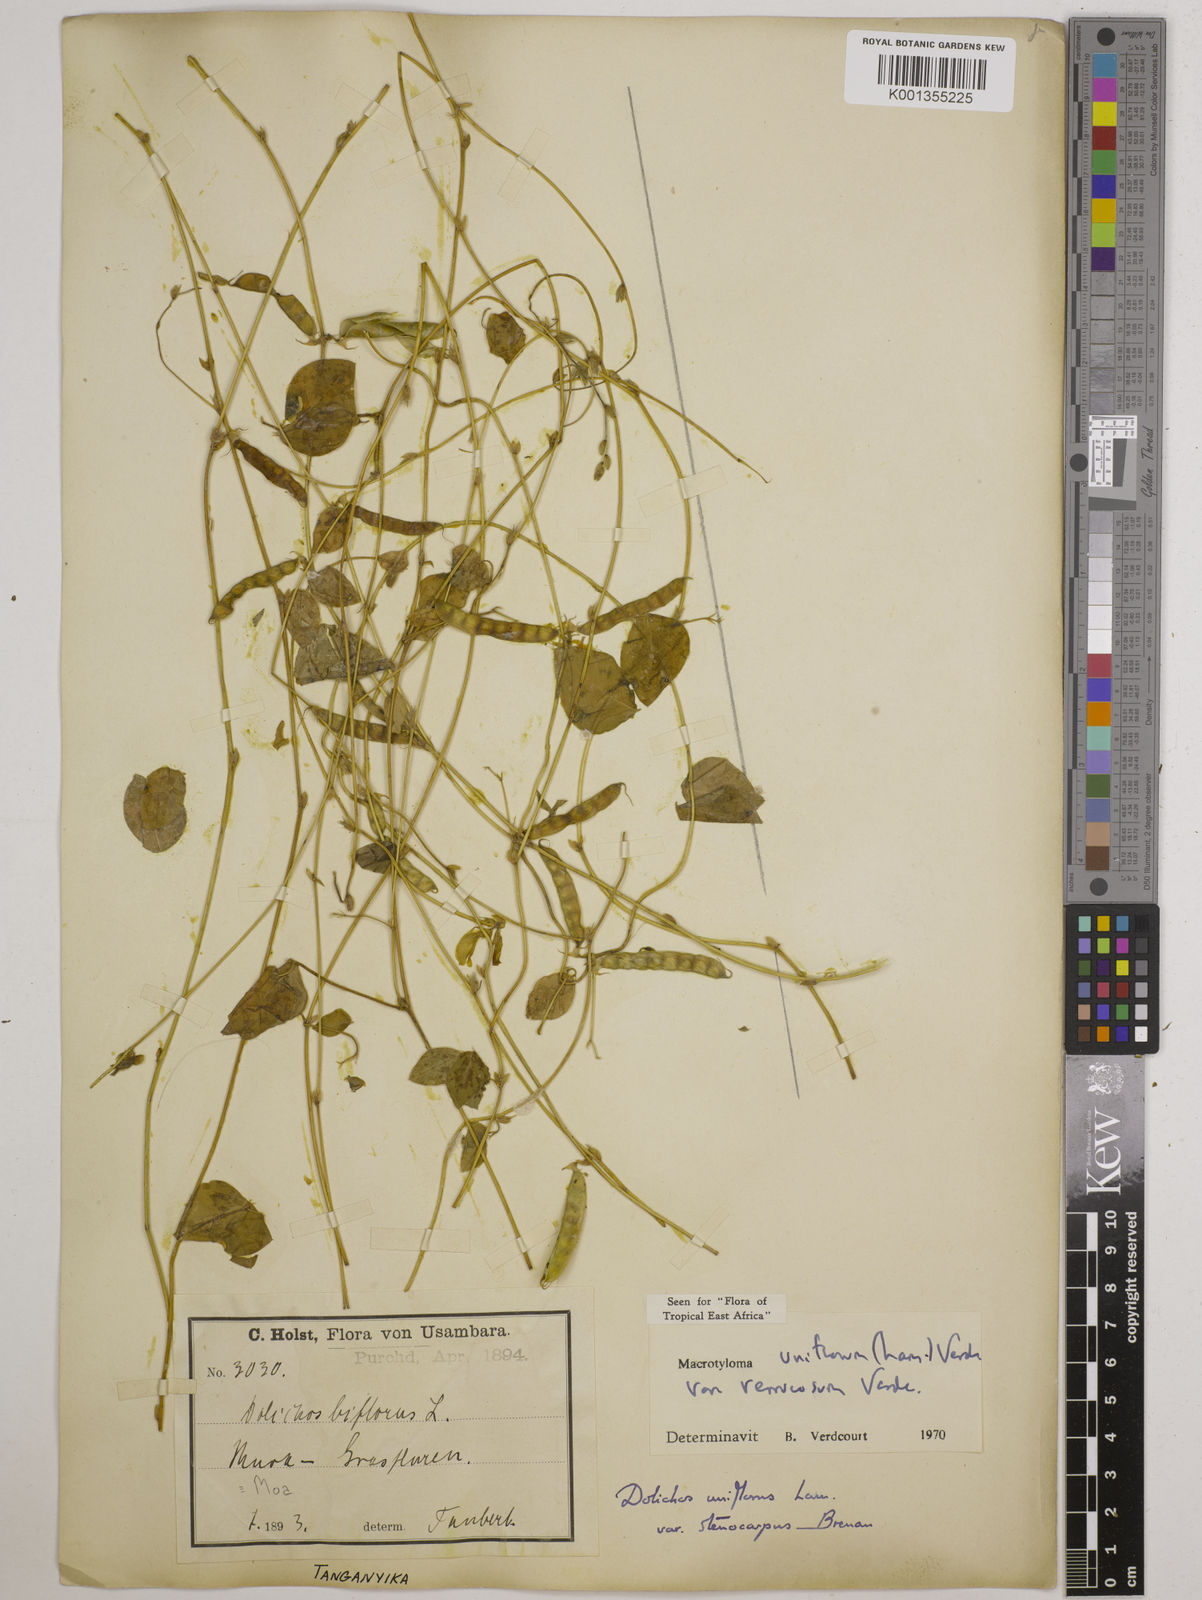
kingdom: Plantae
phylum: Tracheophyta
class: Magnoliopsida
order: Fabales
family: Fabaceae
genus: Macrotyloma
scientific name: Macrotyloma
